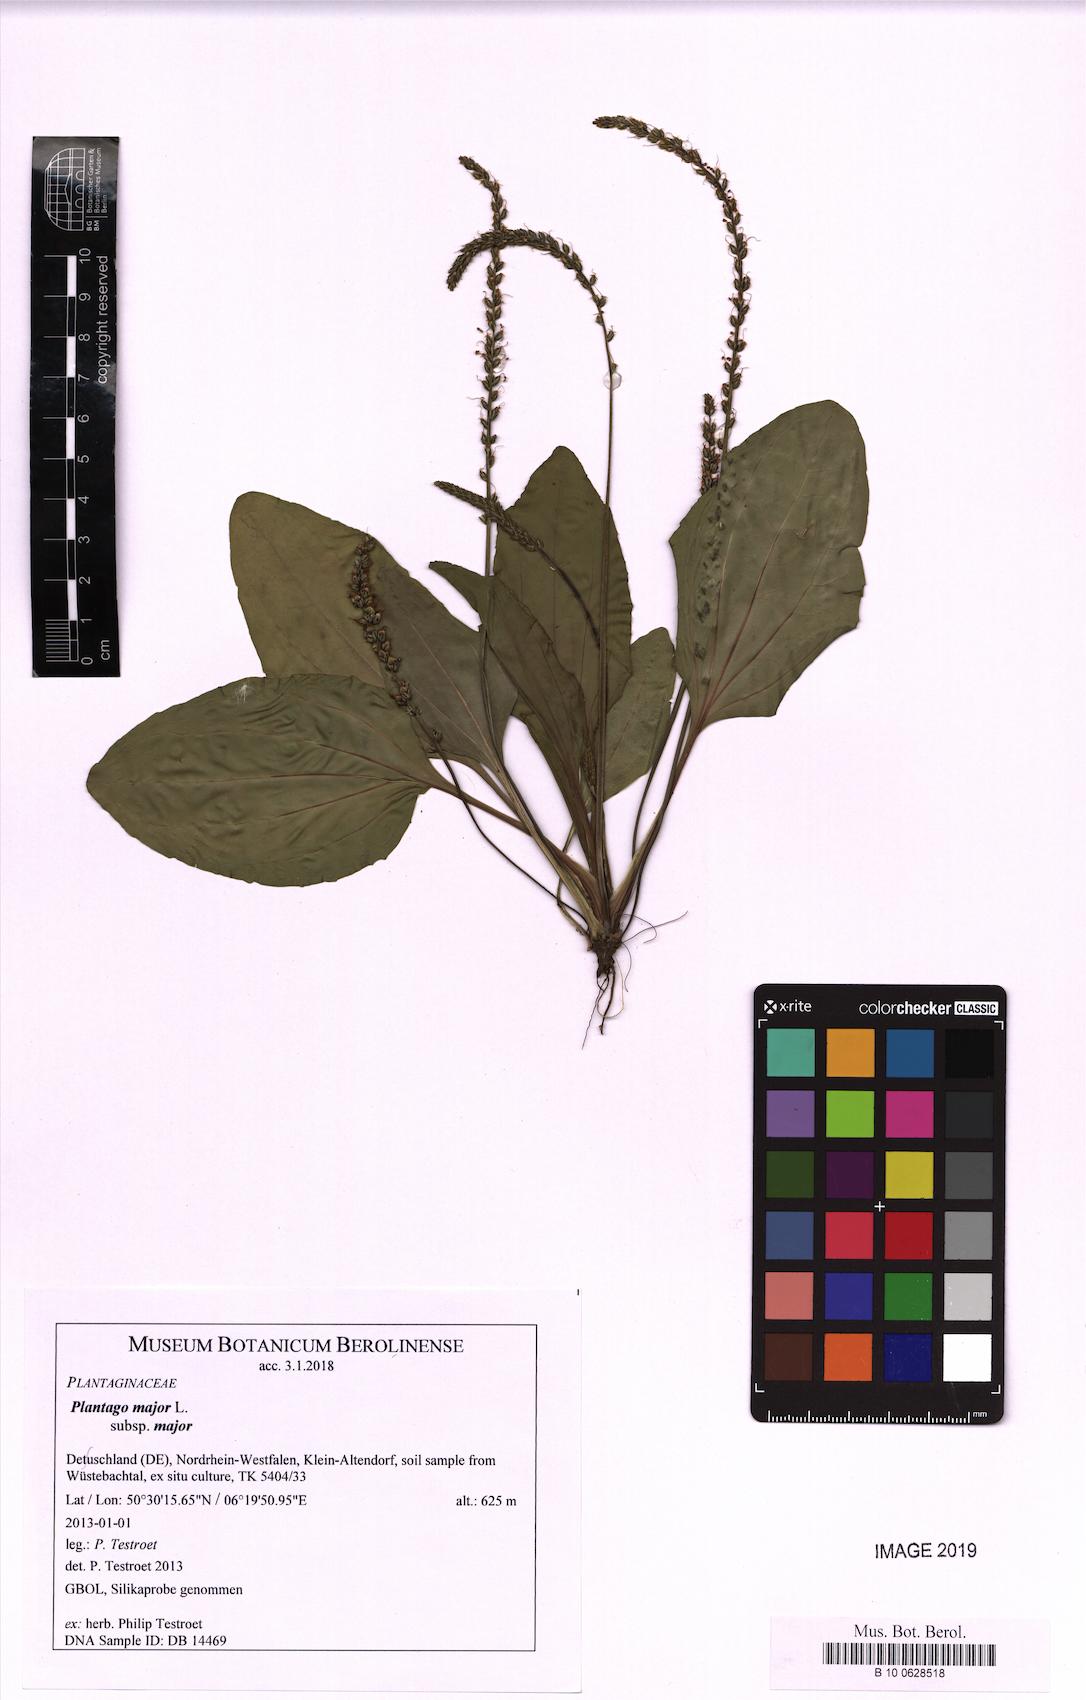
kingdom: Plantae
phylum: Tracheophyta
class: Magnoliopsida
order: Lamiales
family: Plantaginaceae
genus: Plantago
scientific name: Plantago major
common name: Common plantain
